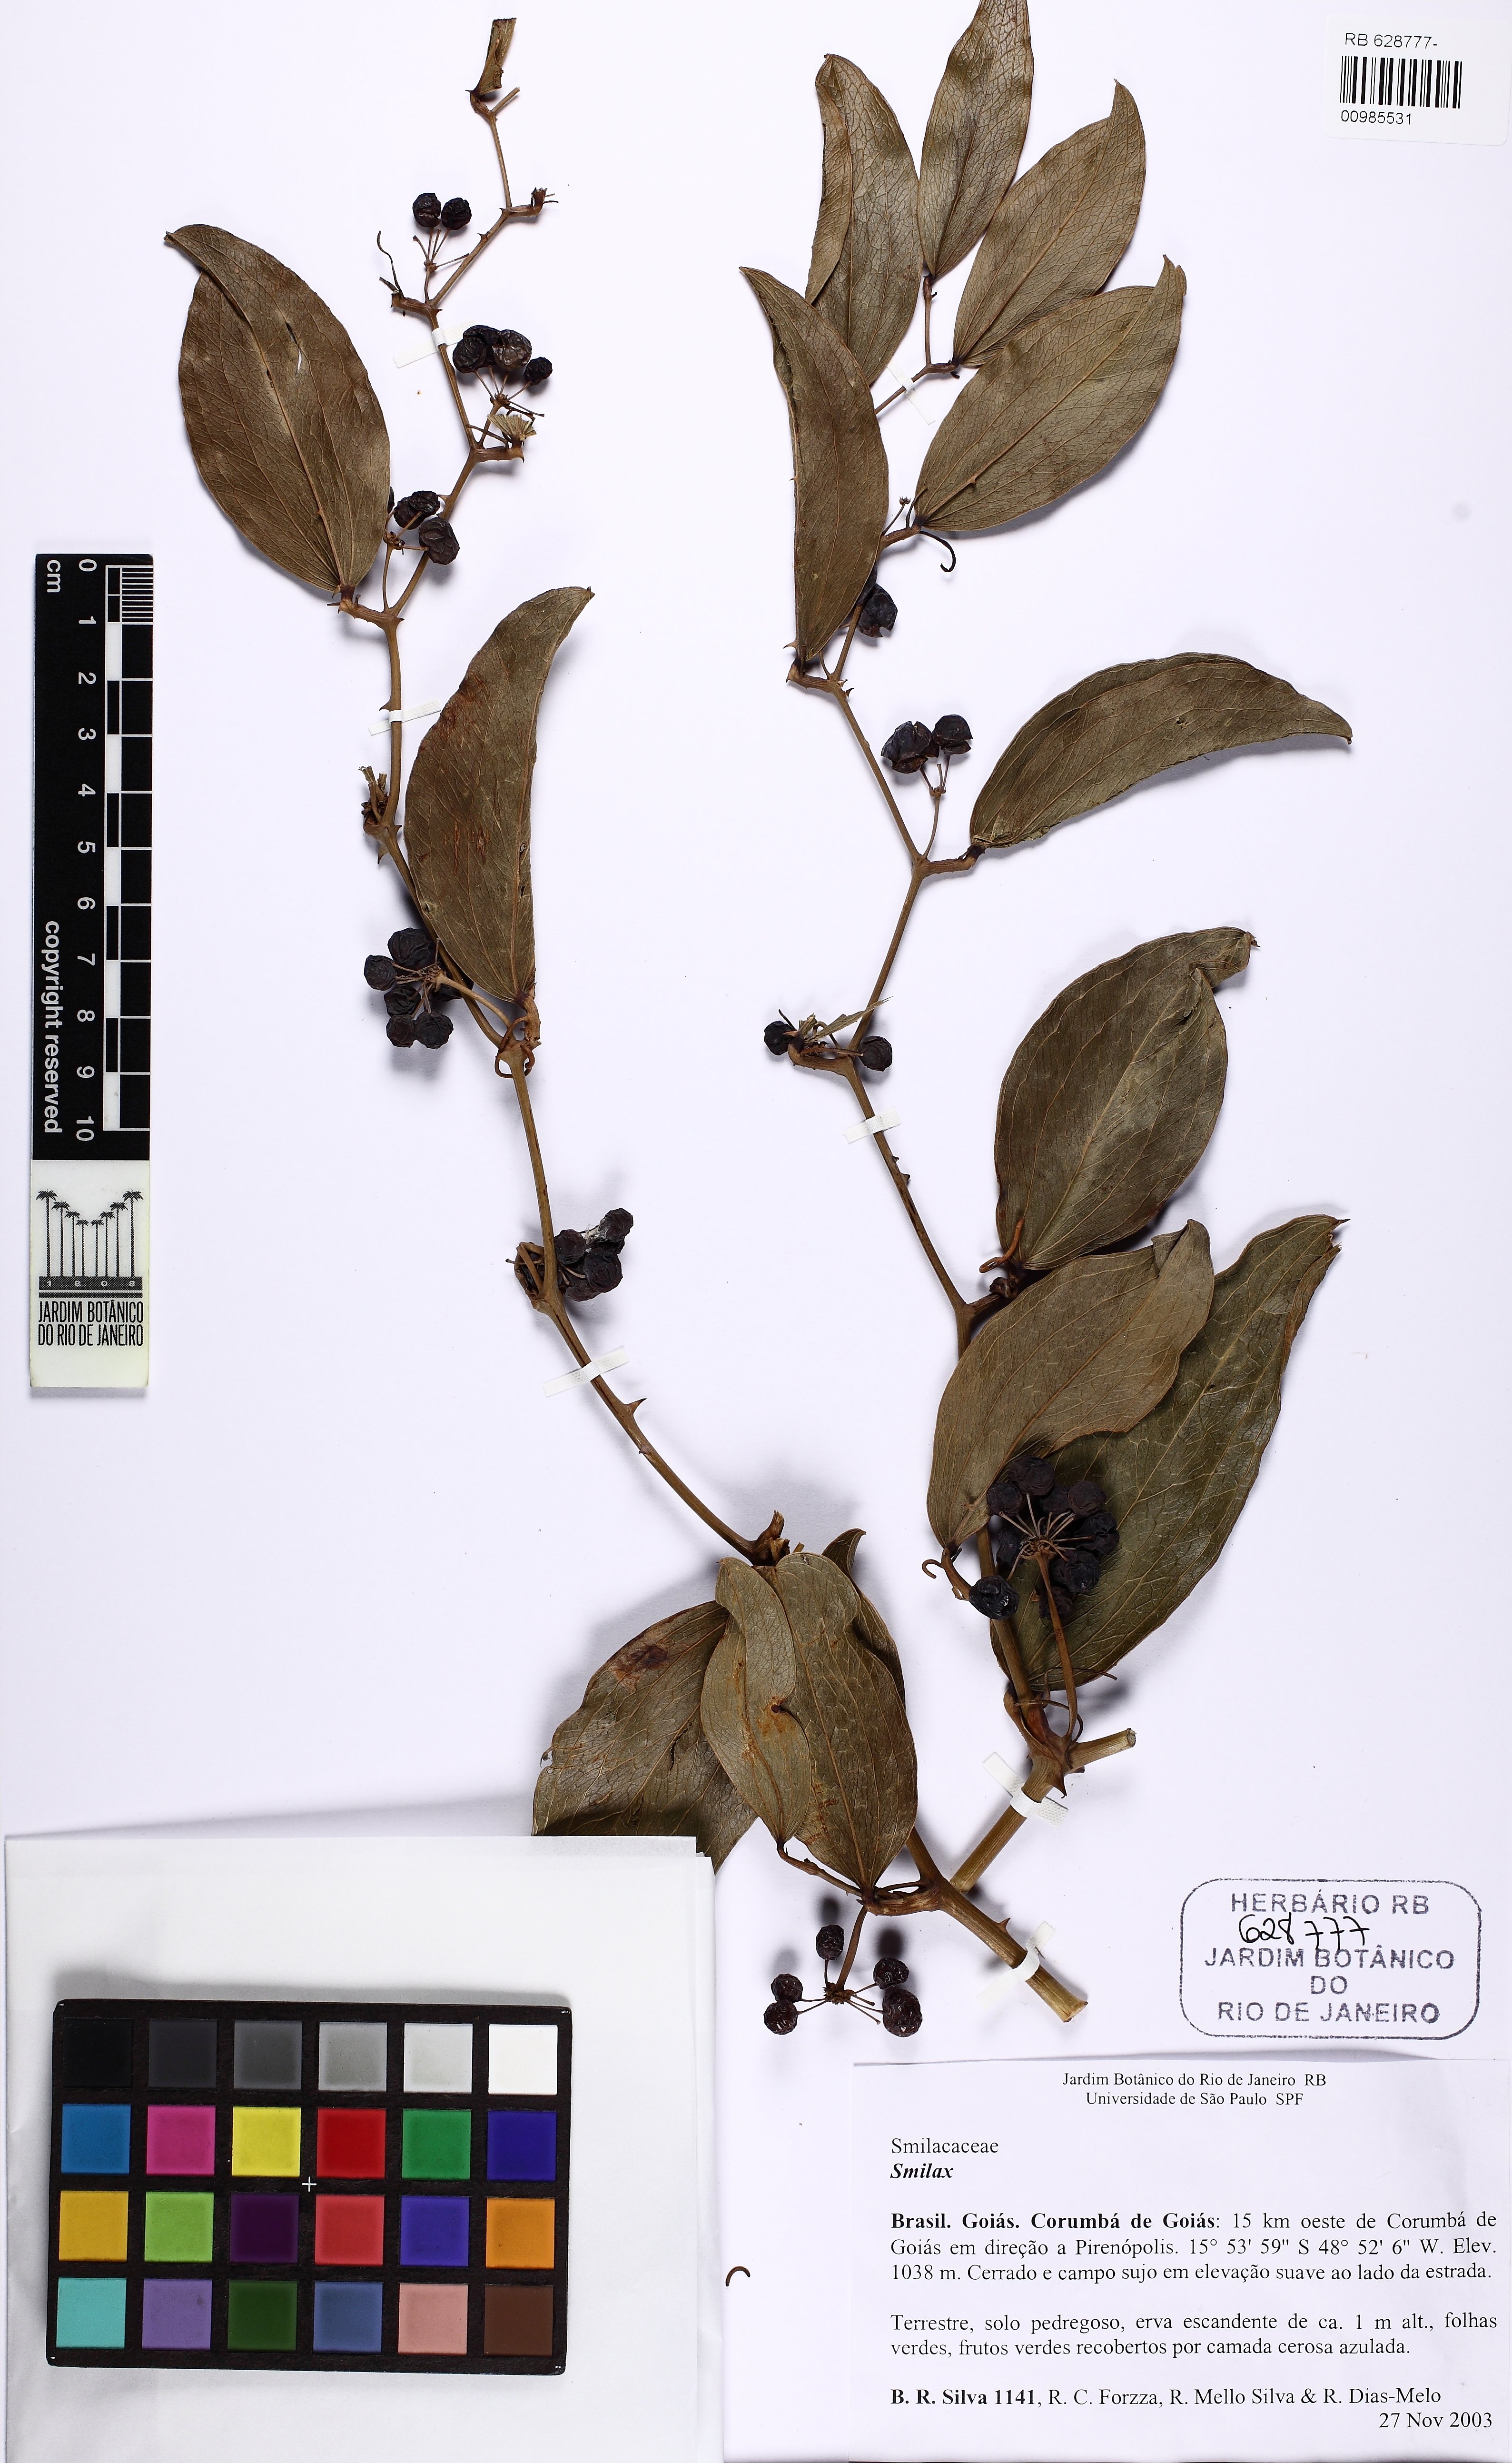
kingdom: Plantae
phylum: Tracheophyta
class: Liliopsida
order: Liliales
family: Smilacaceae
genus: Smilax
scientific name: Smilax
